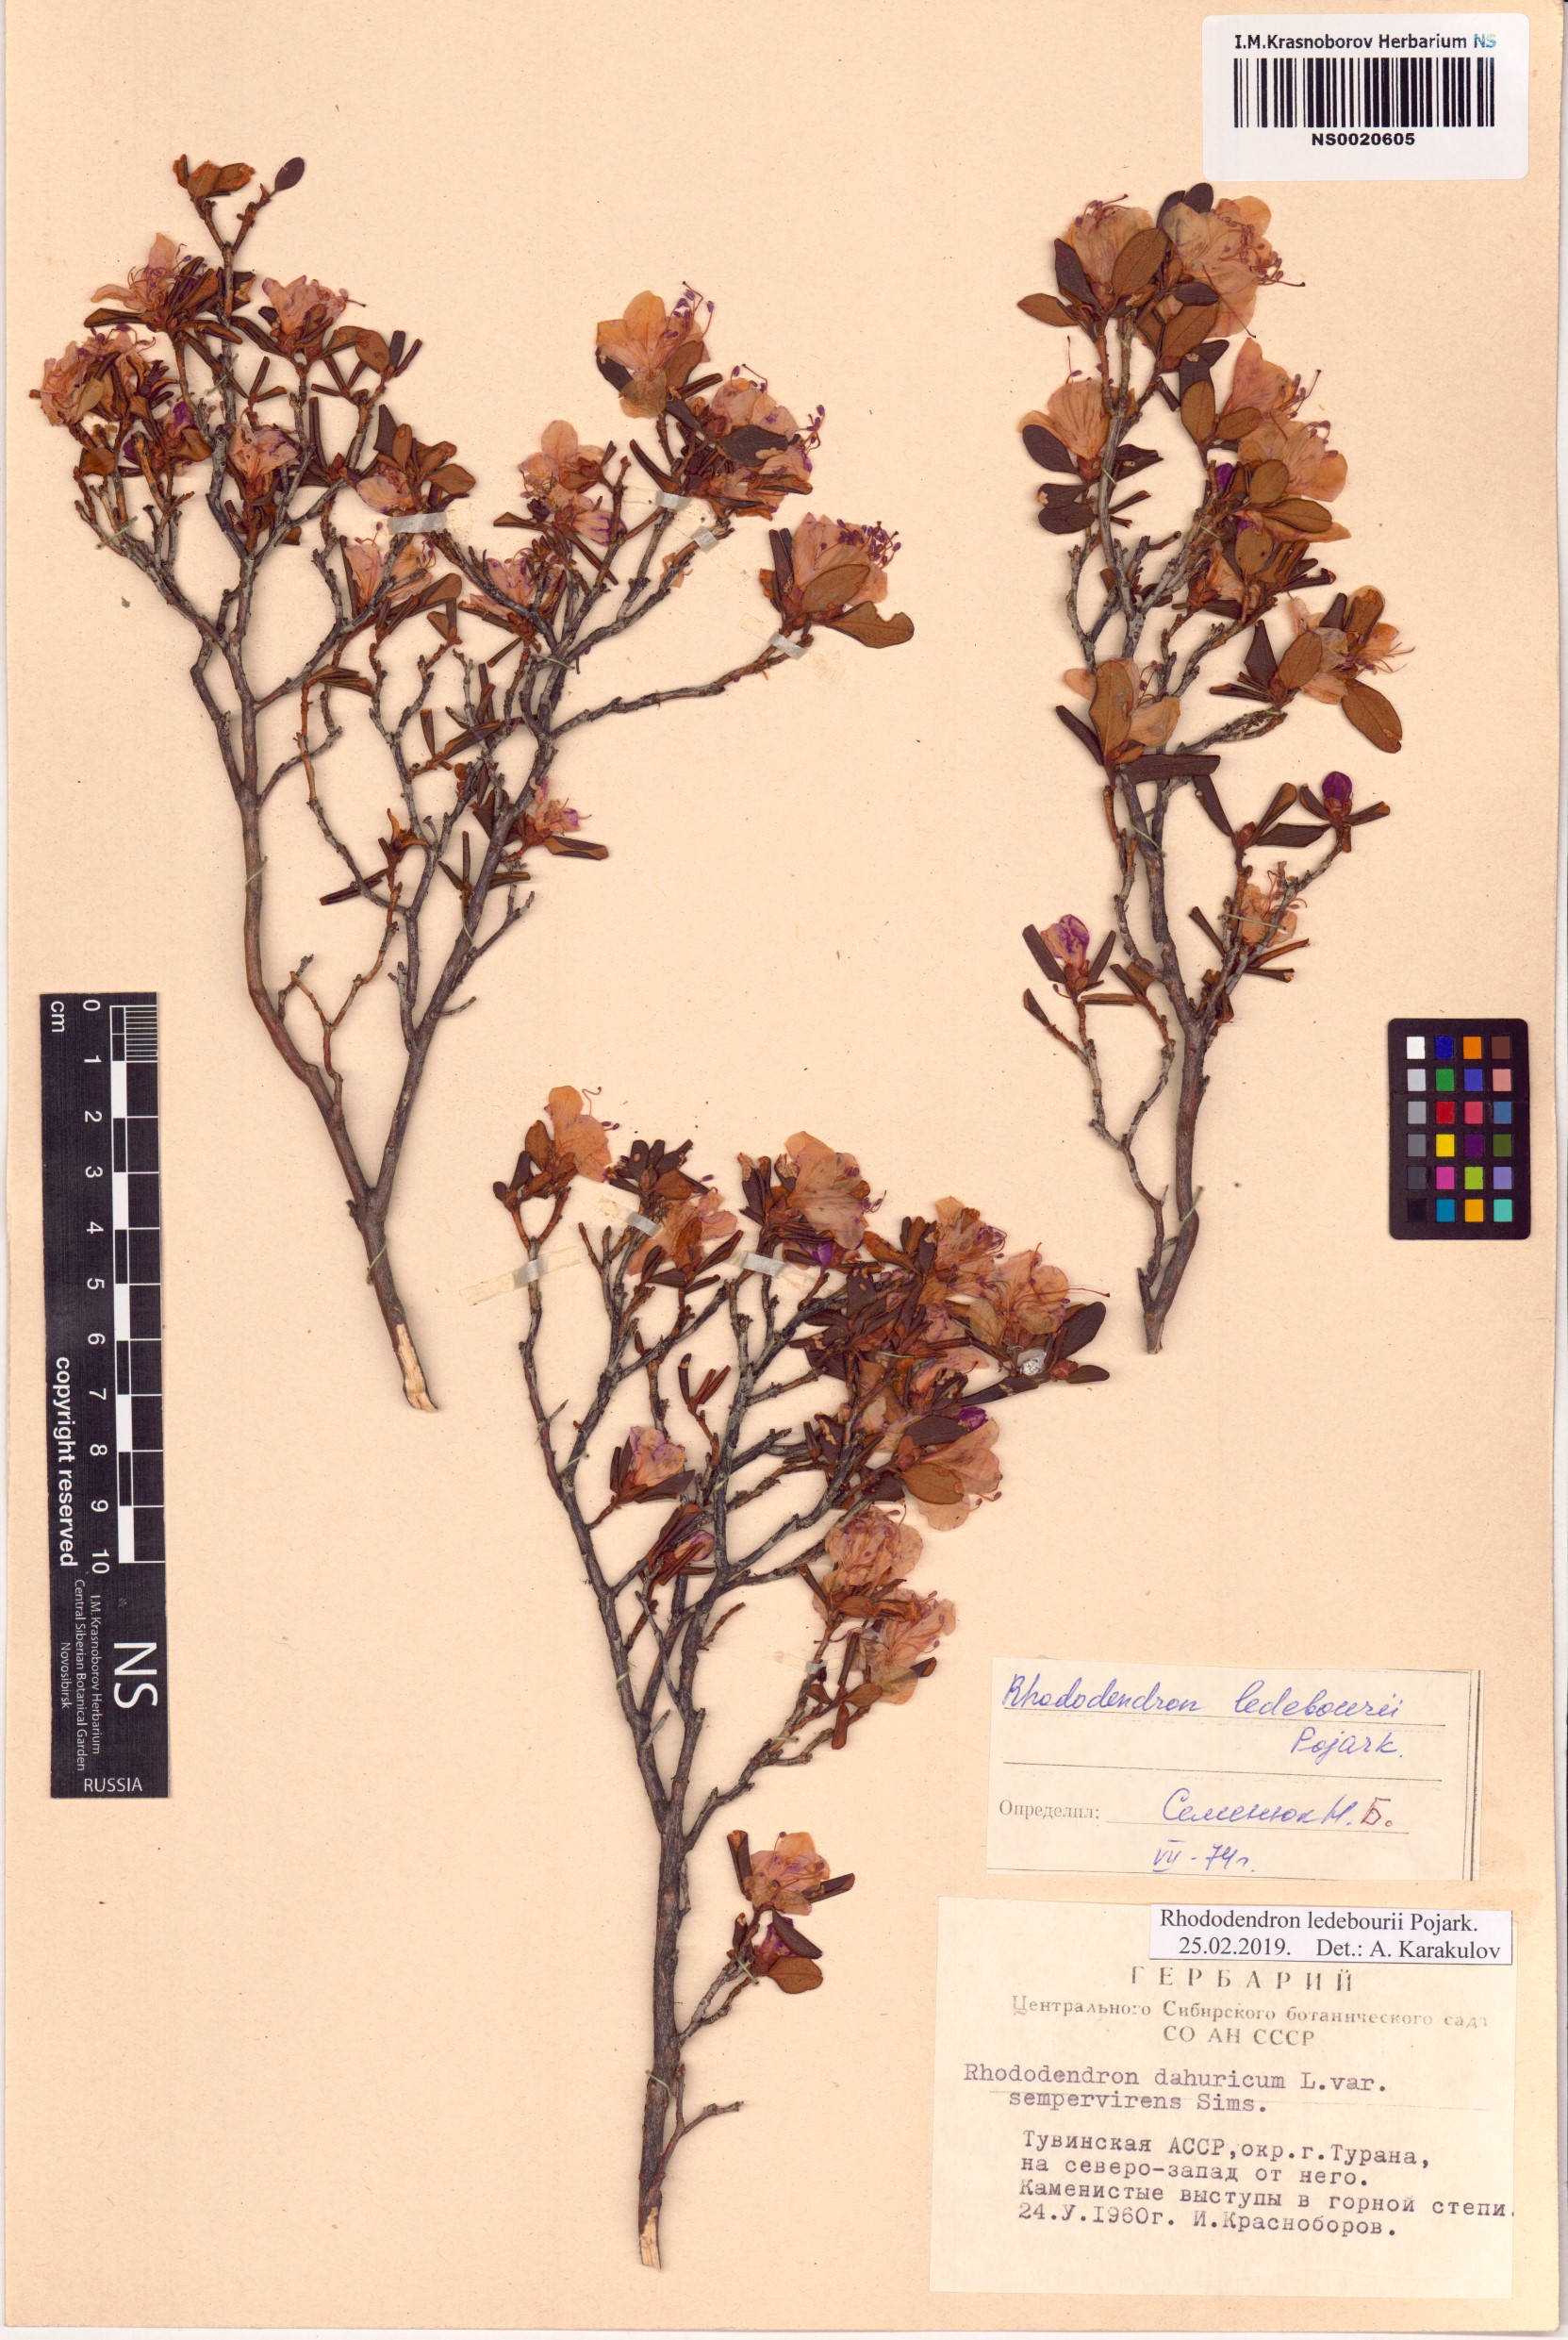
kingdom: Plantae
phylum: Tracheophyta
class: Magnoliopsida
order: Ericales
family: Ericaceae
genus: Rhododendron
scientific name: Rhododendron dauricum
